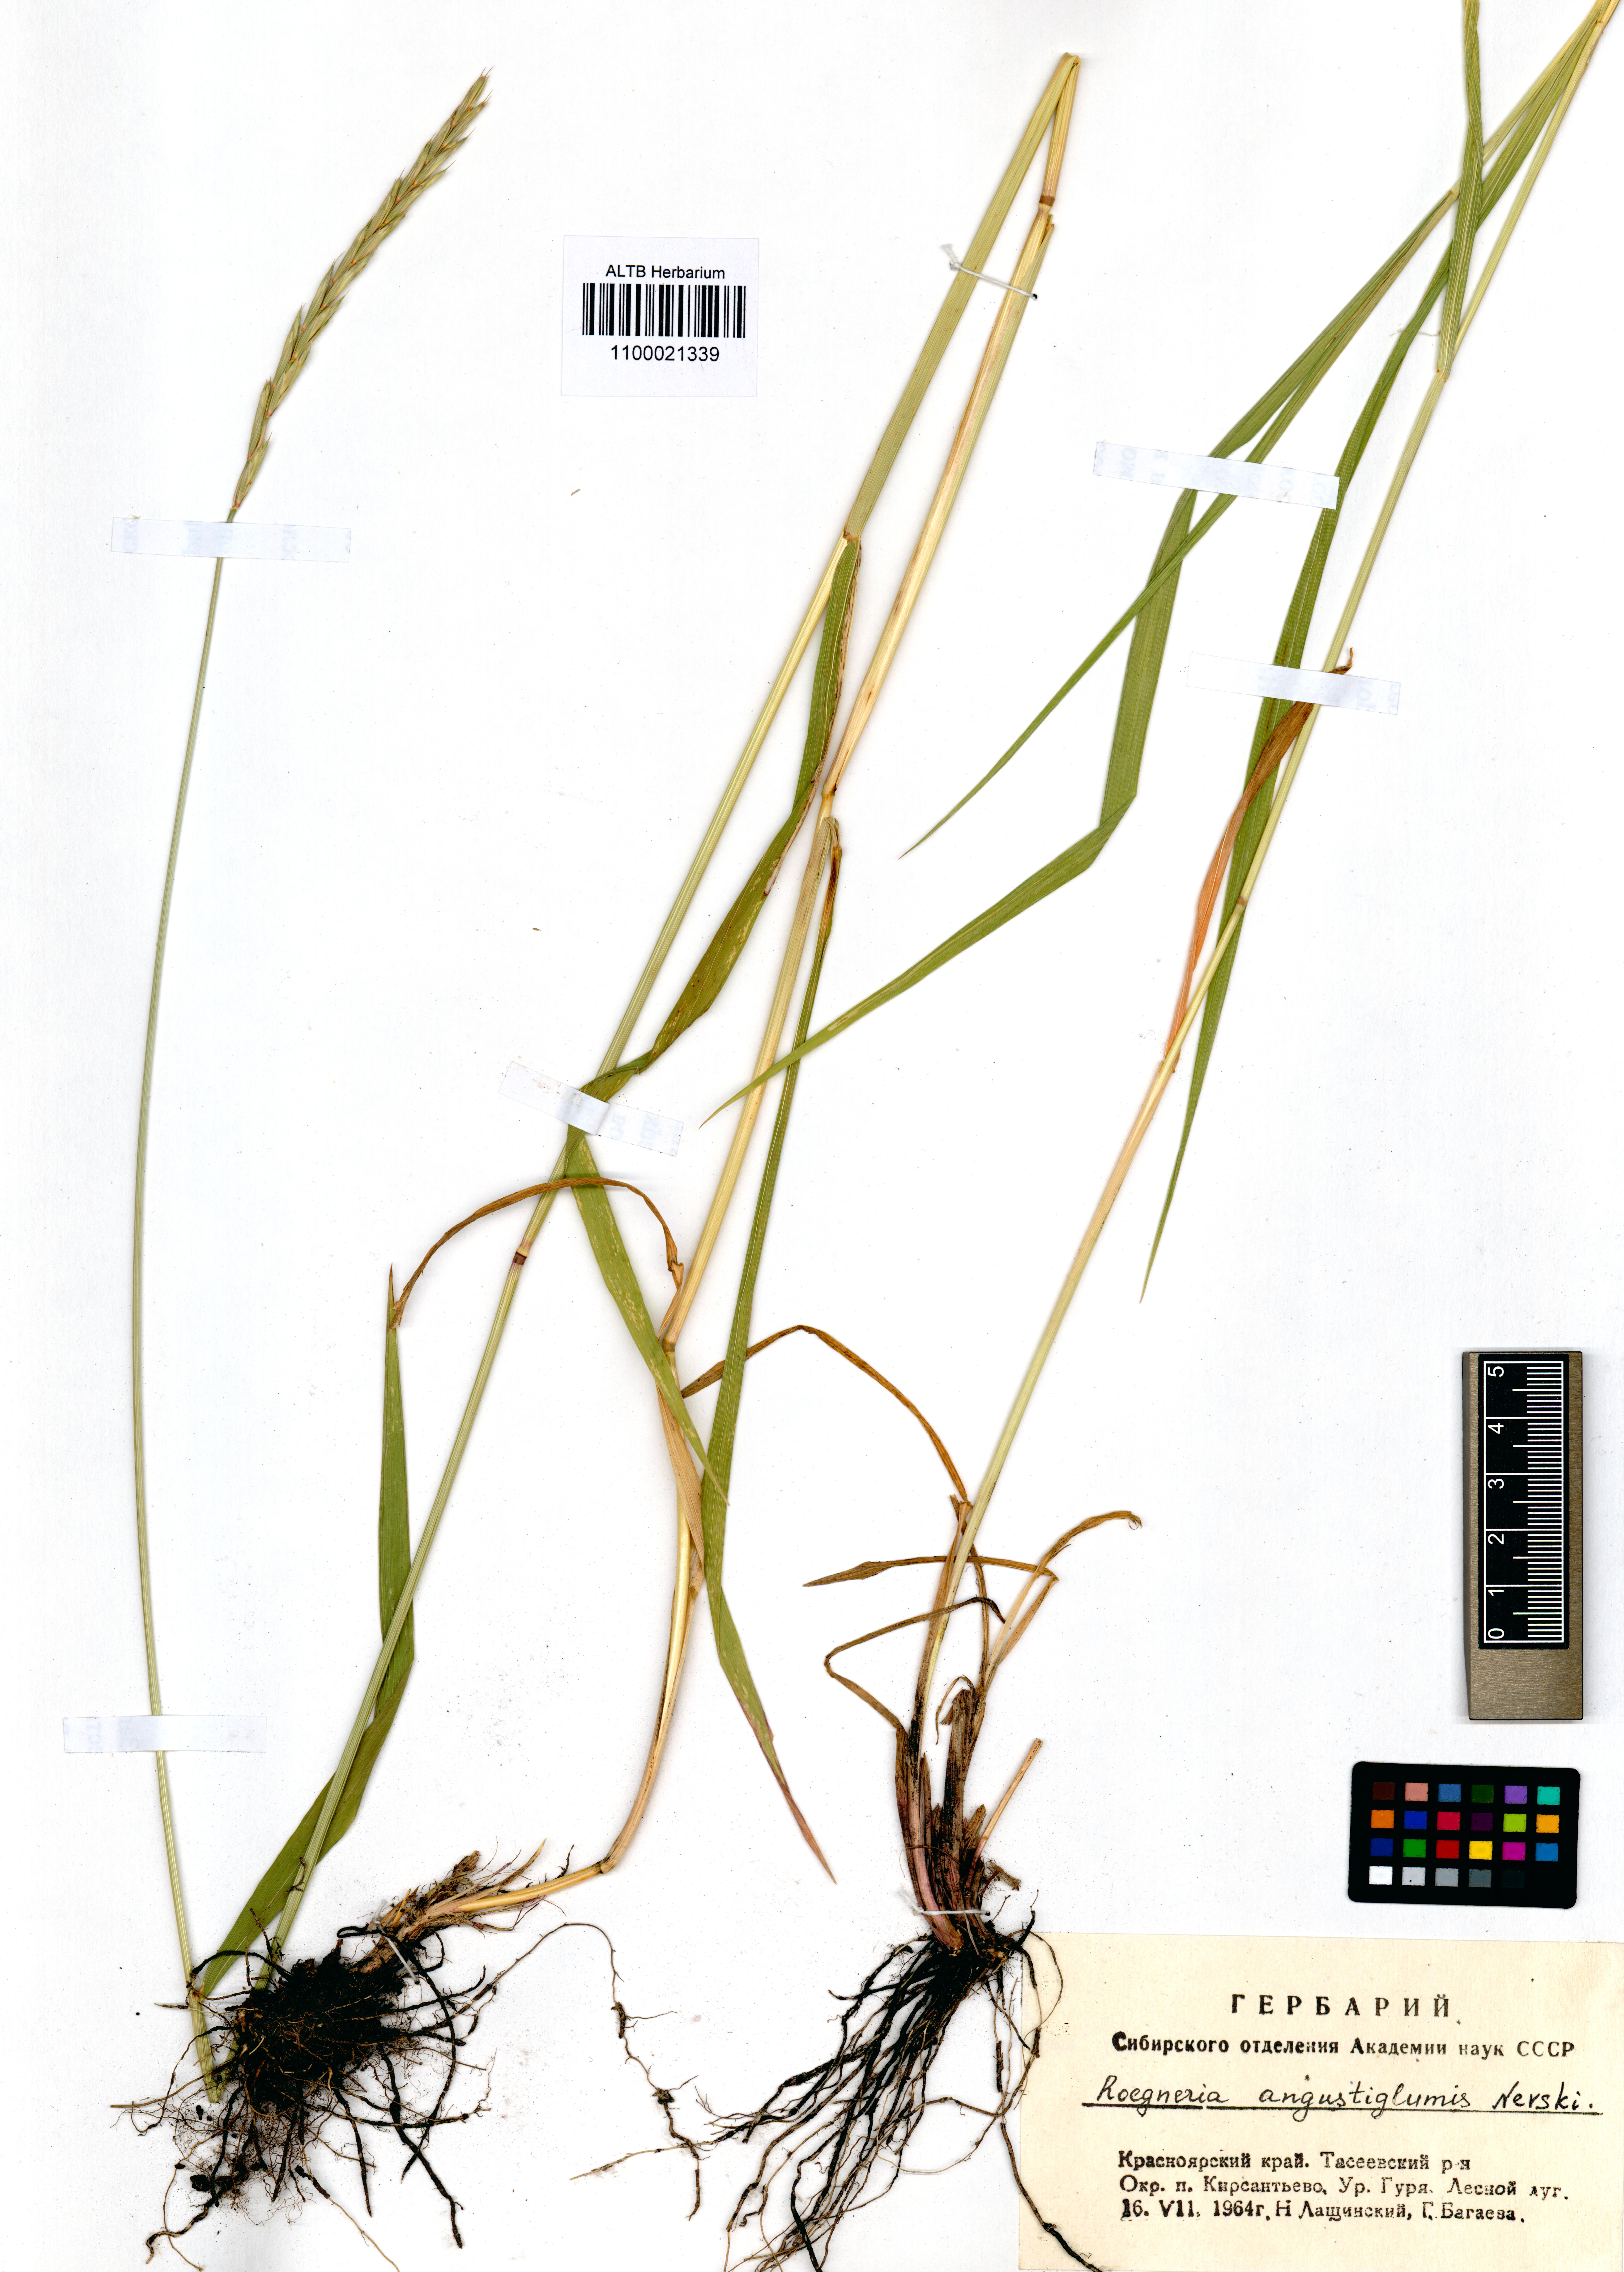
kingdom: Plantae
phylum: Tracheophyta
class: Liliopsida
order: Poales
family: Poaceae
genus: Elymus
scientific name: Elymus mutabilis
